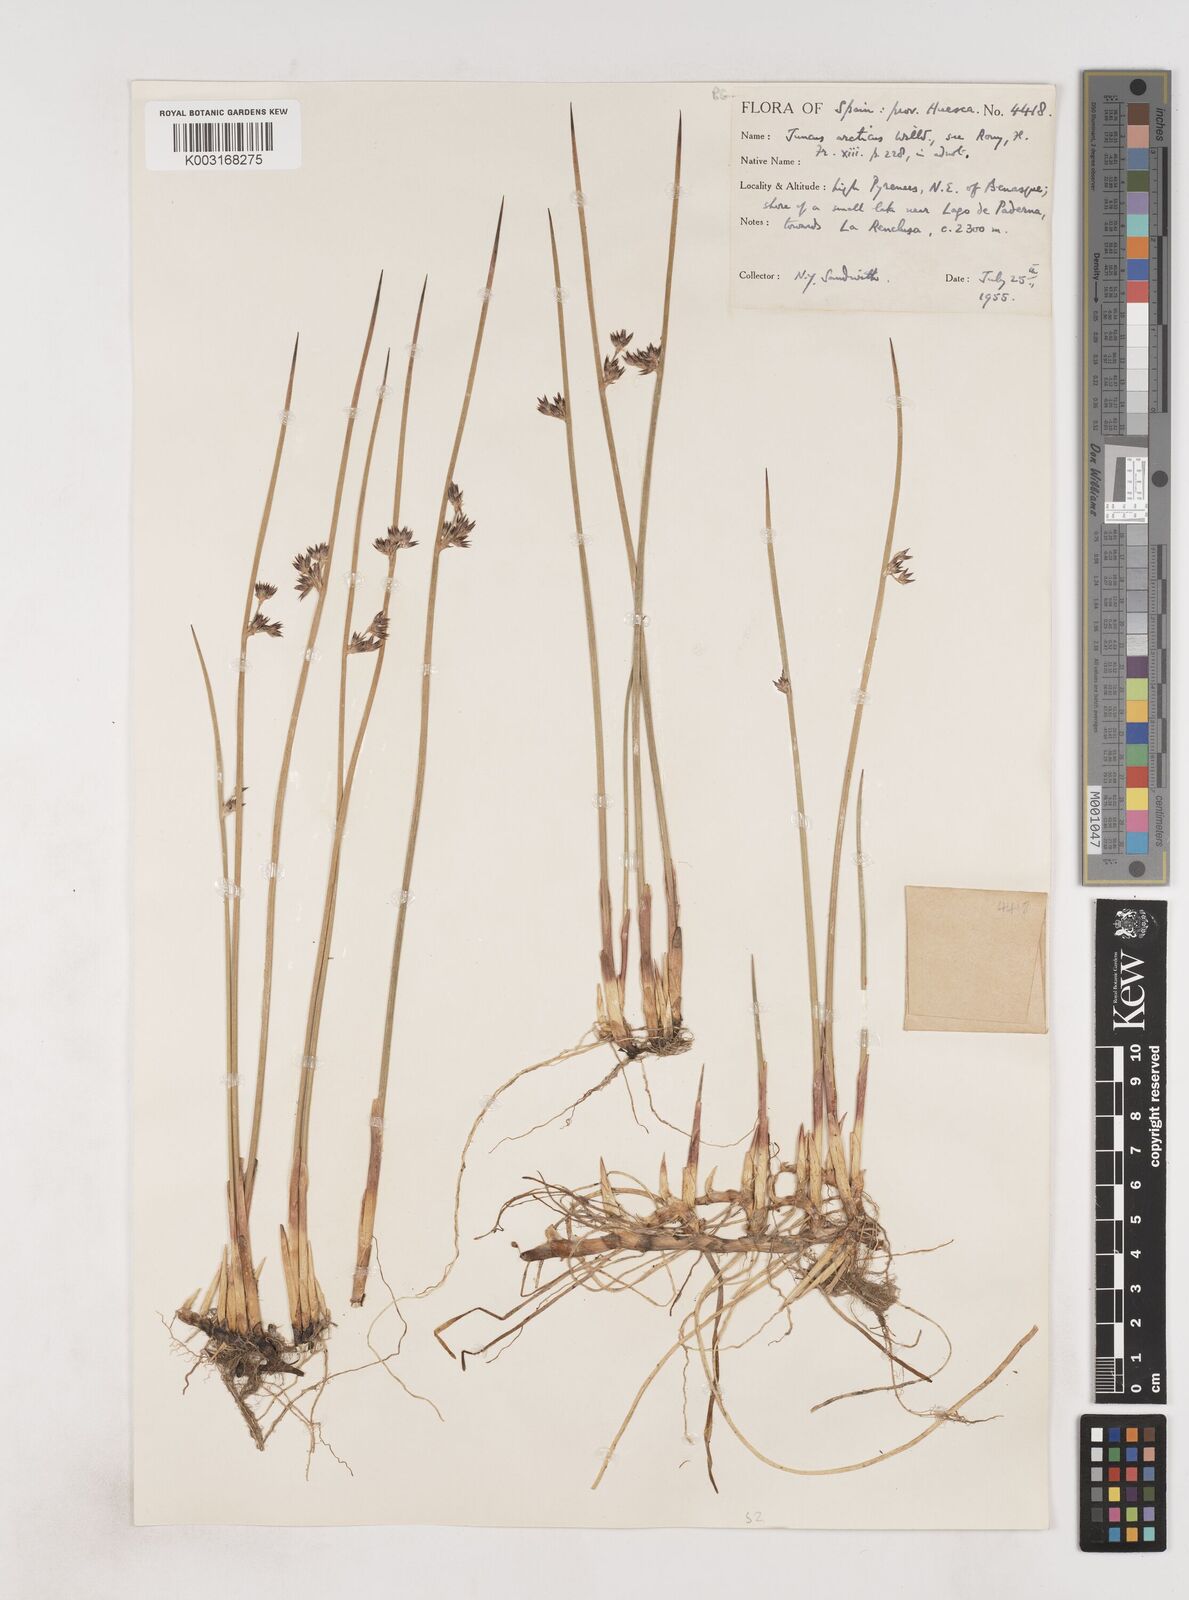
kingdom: Plantae
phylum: Tracheophyta
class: Liliopsida
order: Poales
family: Juncaceae
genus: Juncus
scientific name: Juncus arcticus
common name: Arctic rush
